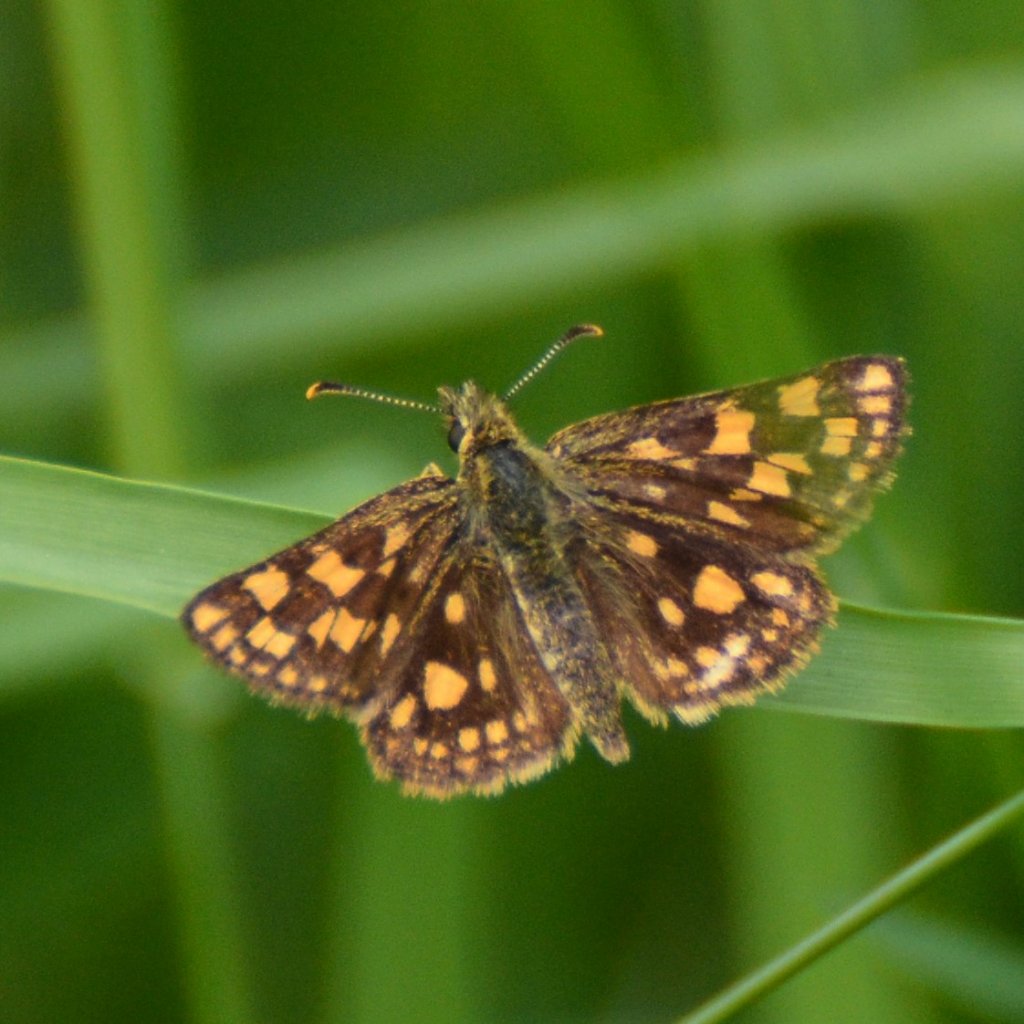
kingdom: Animalia
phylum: Arthropoda
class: Insecta
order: Lepidoptera
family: Hesperiidae
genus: Carterocephalus
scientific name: Carterocephalus palaemon
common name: Chequered Skipper
